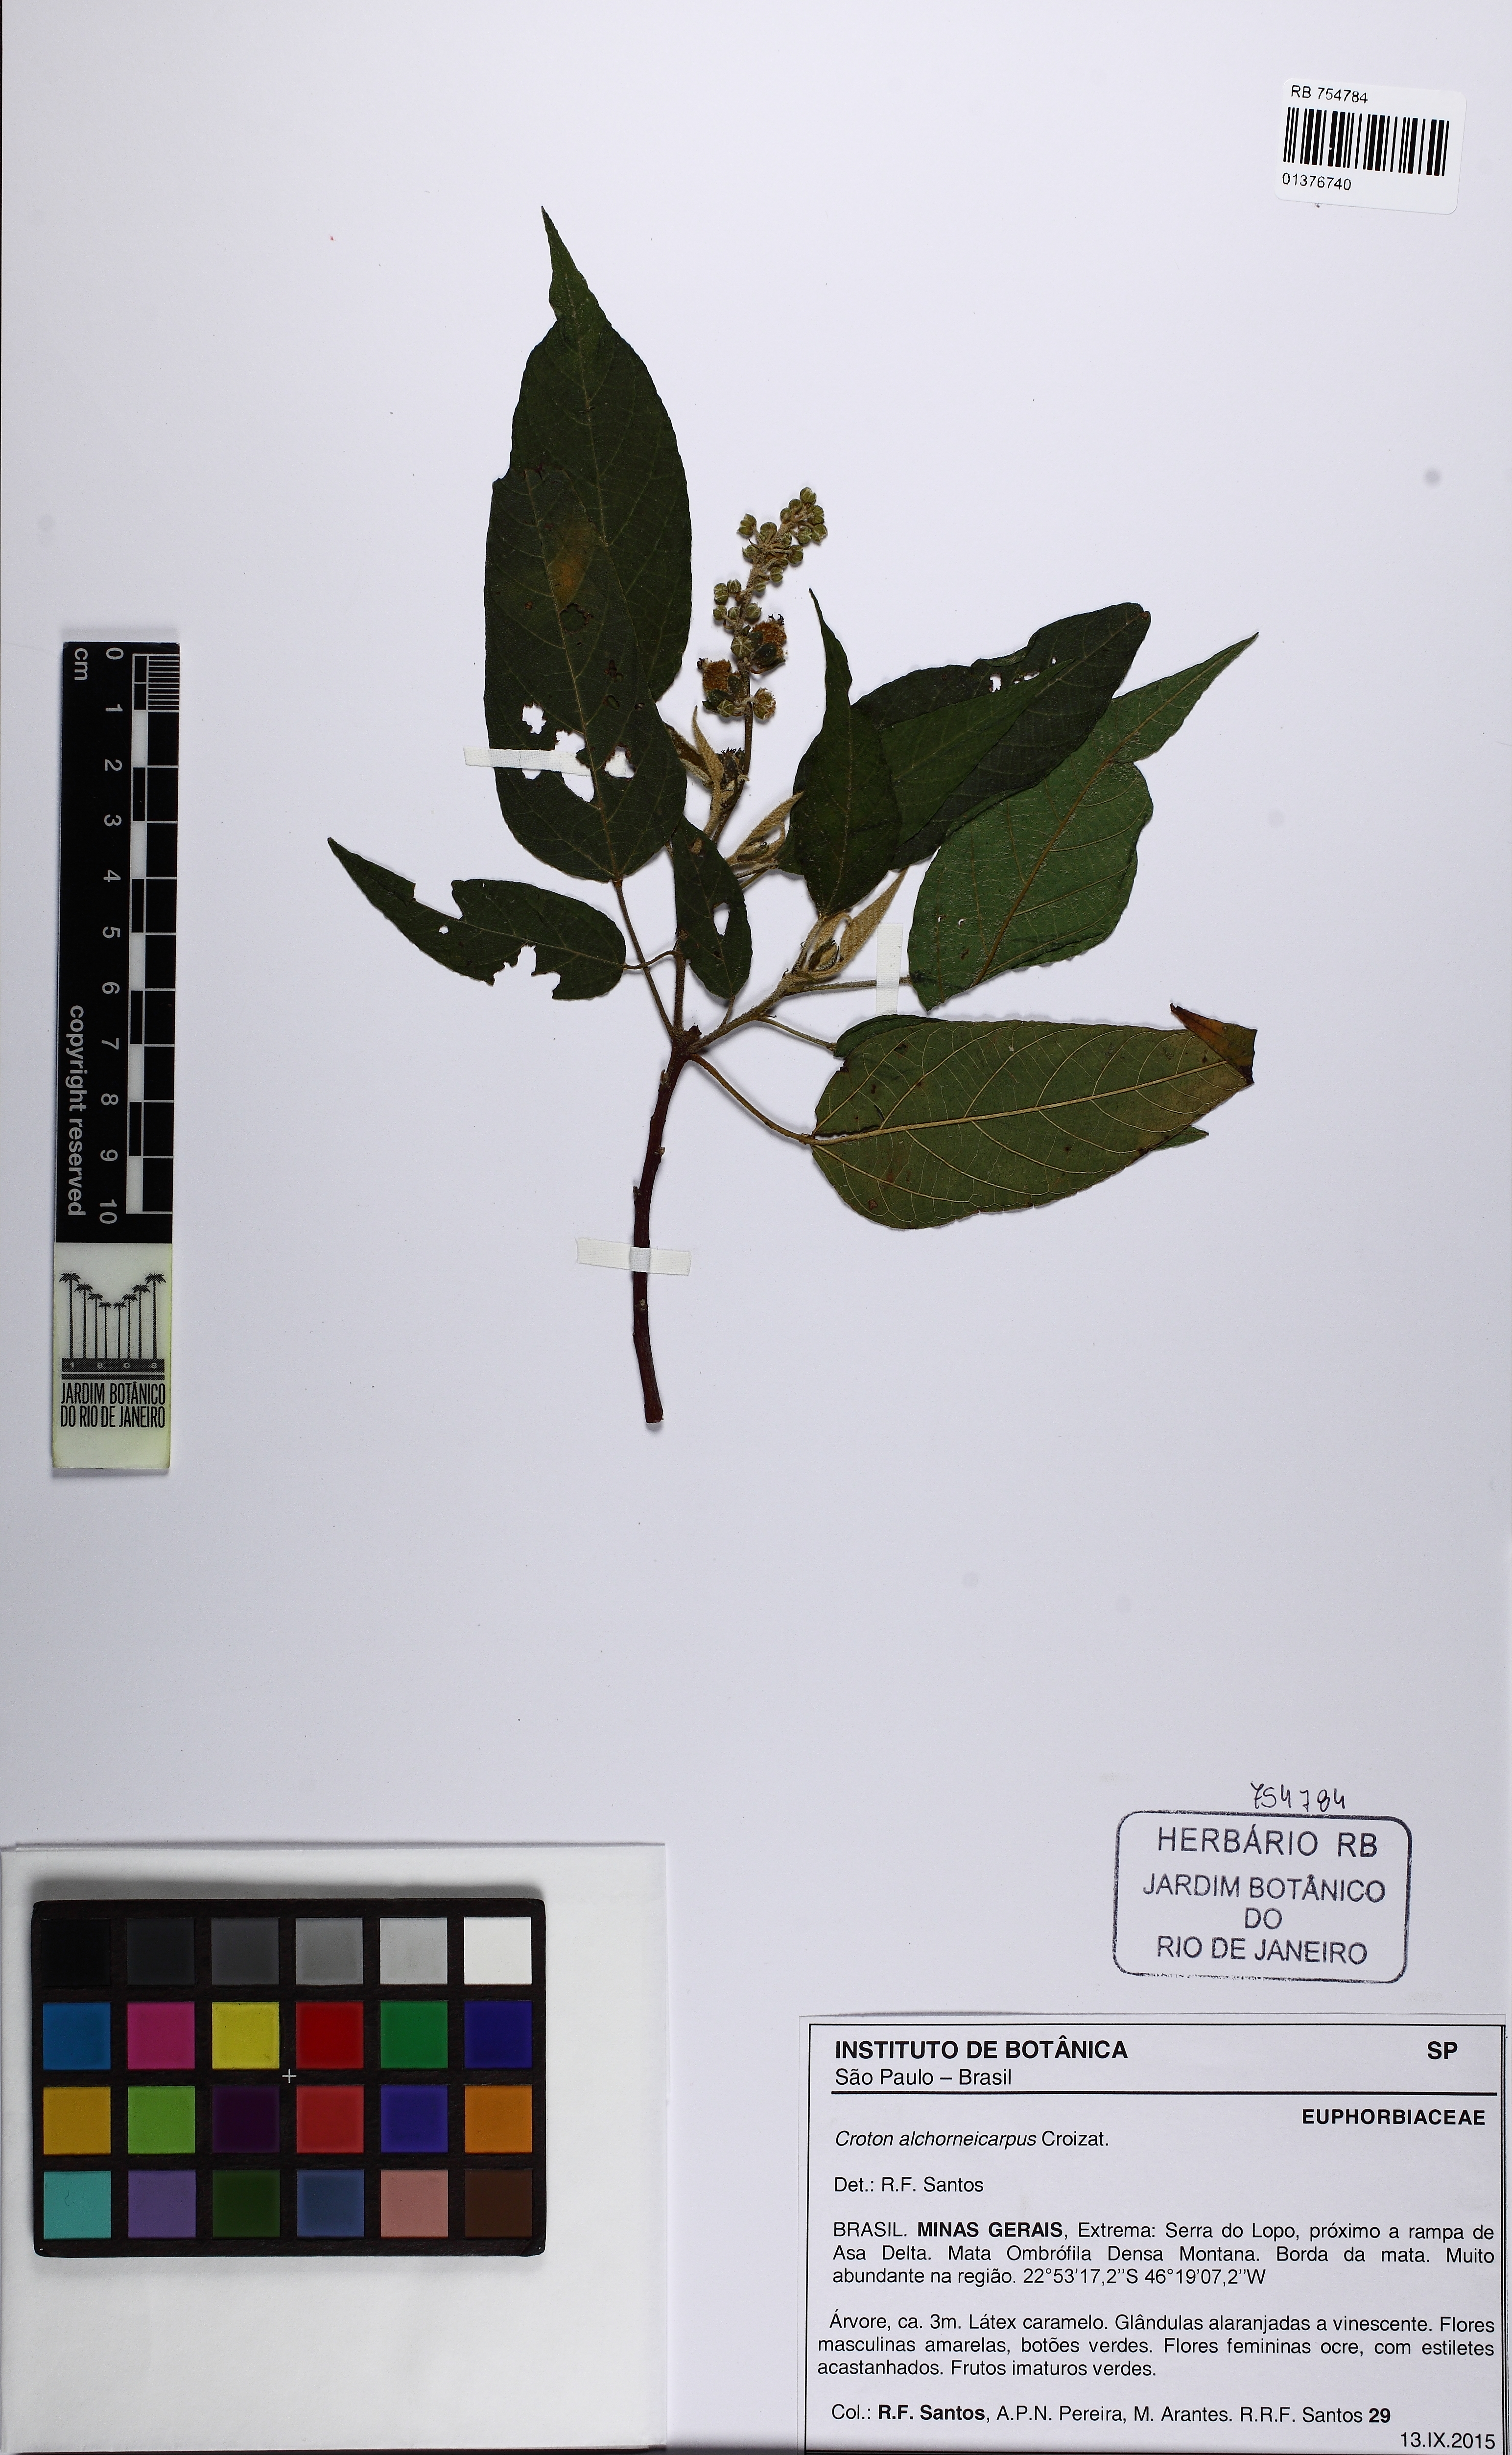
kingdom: Plantae
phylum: Tracheophyta
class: Magnoliopsida
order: Malpighiales
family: Euphorbiaceae
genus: Croton
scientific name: Croton alchorneicarpus
